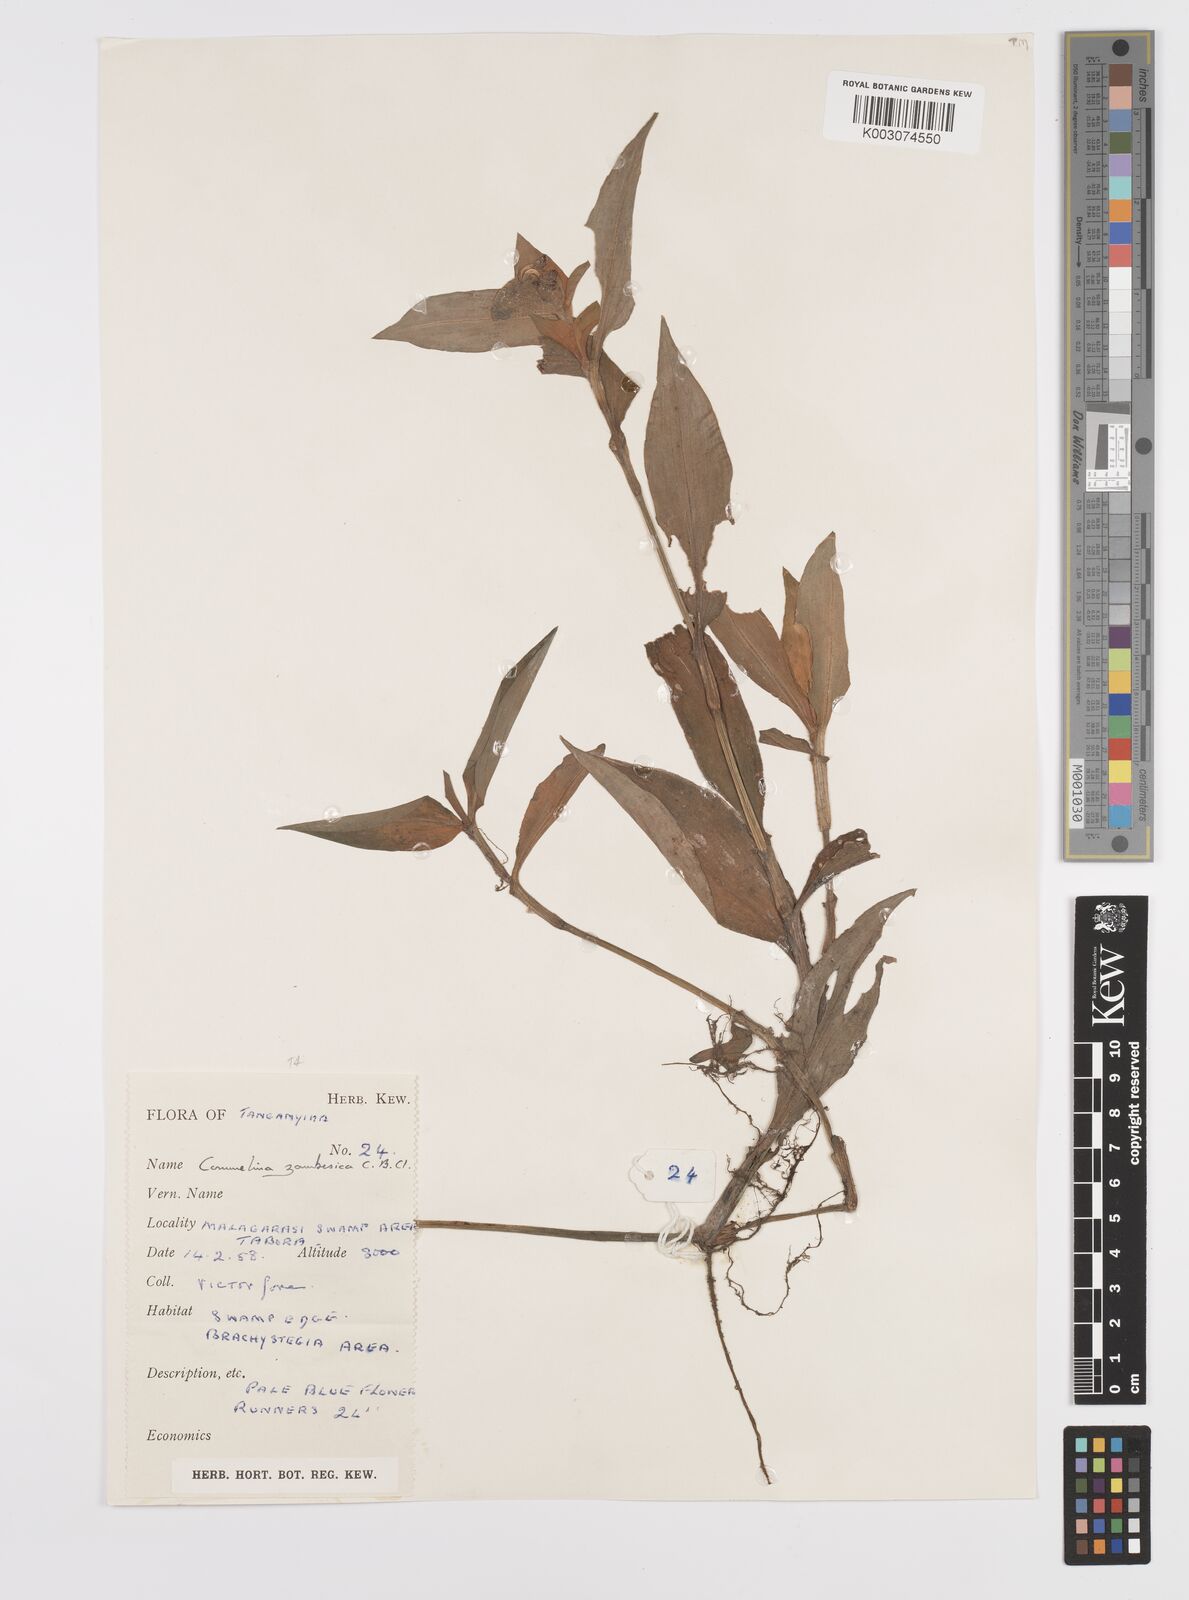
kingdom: Plantae
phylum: Tracheophyta
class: Liliopsida
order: Commelinales
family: Commelinaceae
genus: Commelina
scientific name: Commelina zambesica
